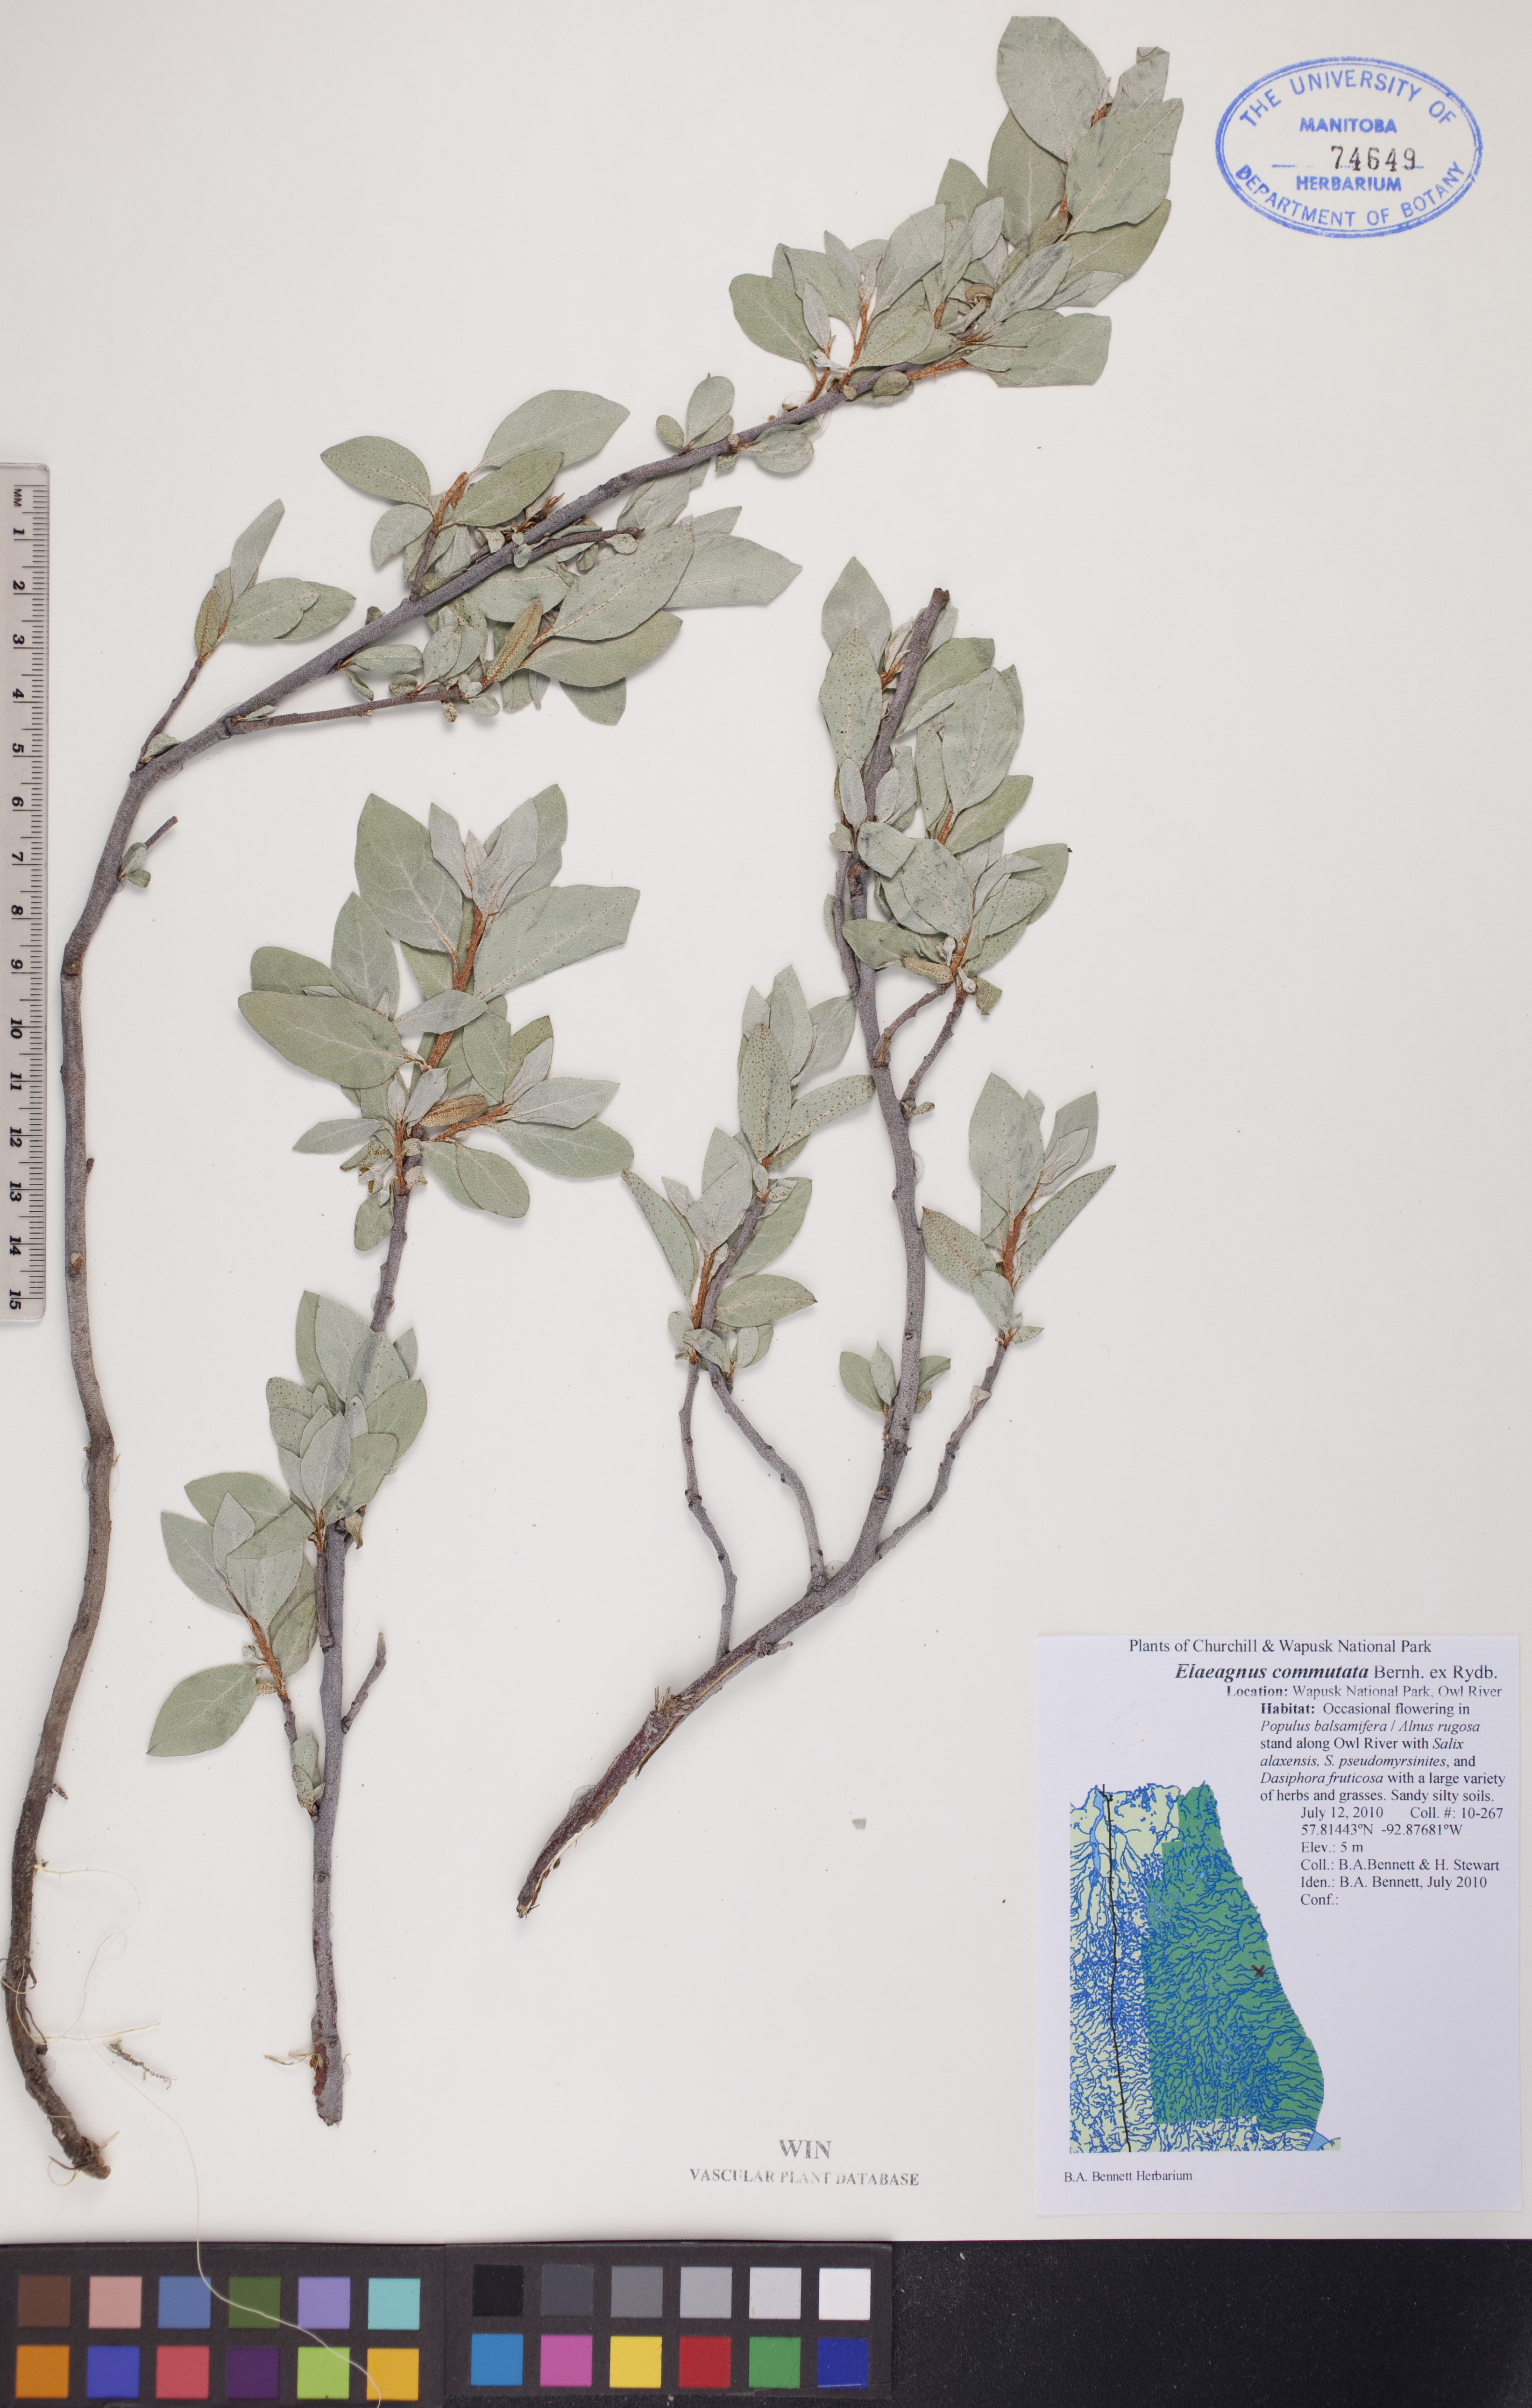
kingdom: Plantae
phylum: Tracheophyta
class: Magnoliopsida
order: Rosales
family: Elaeagnaceae
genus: Elaeagnus
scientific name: Elaeagnus commutata
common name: Silverberry
